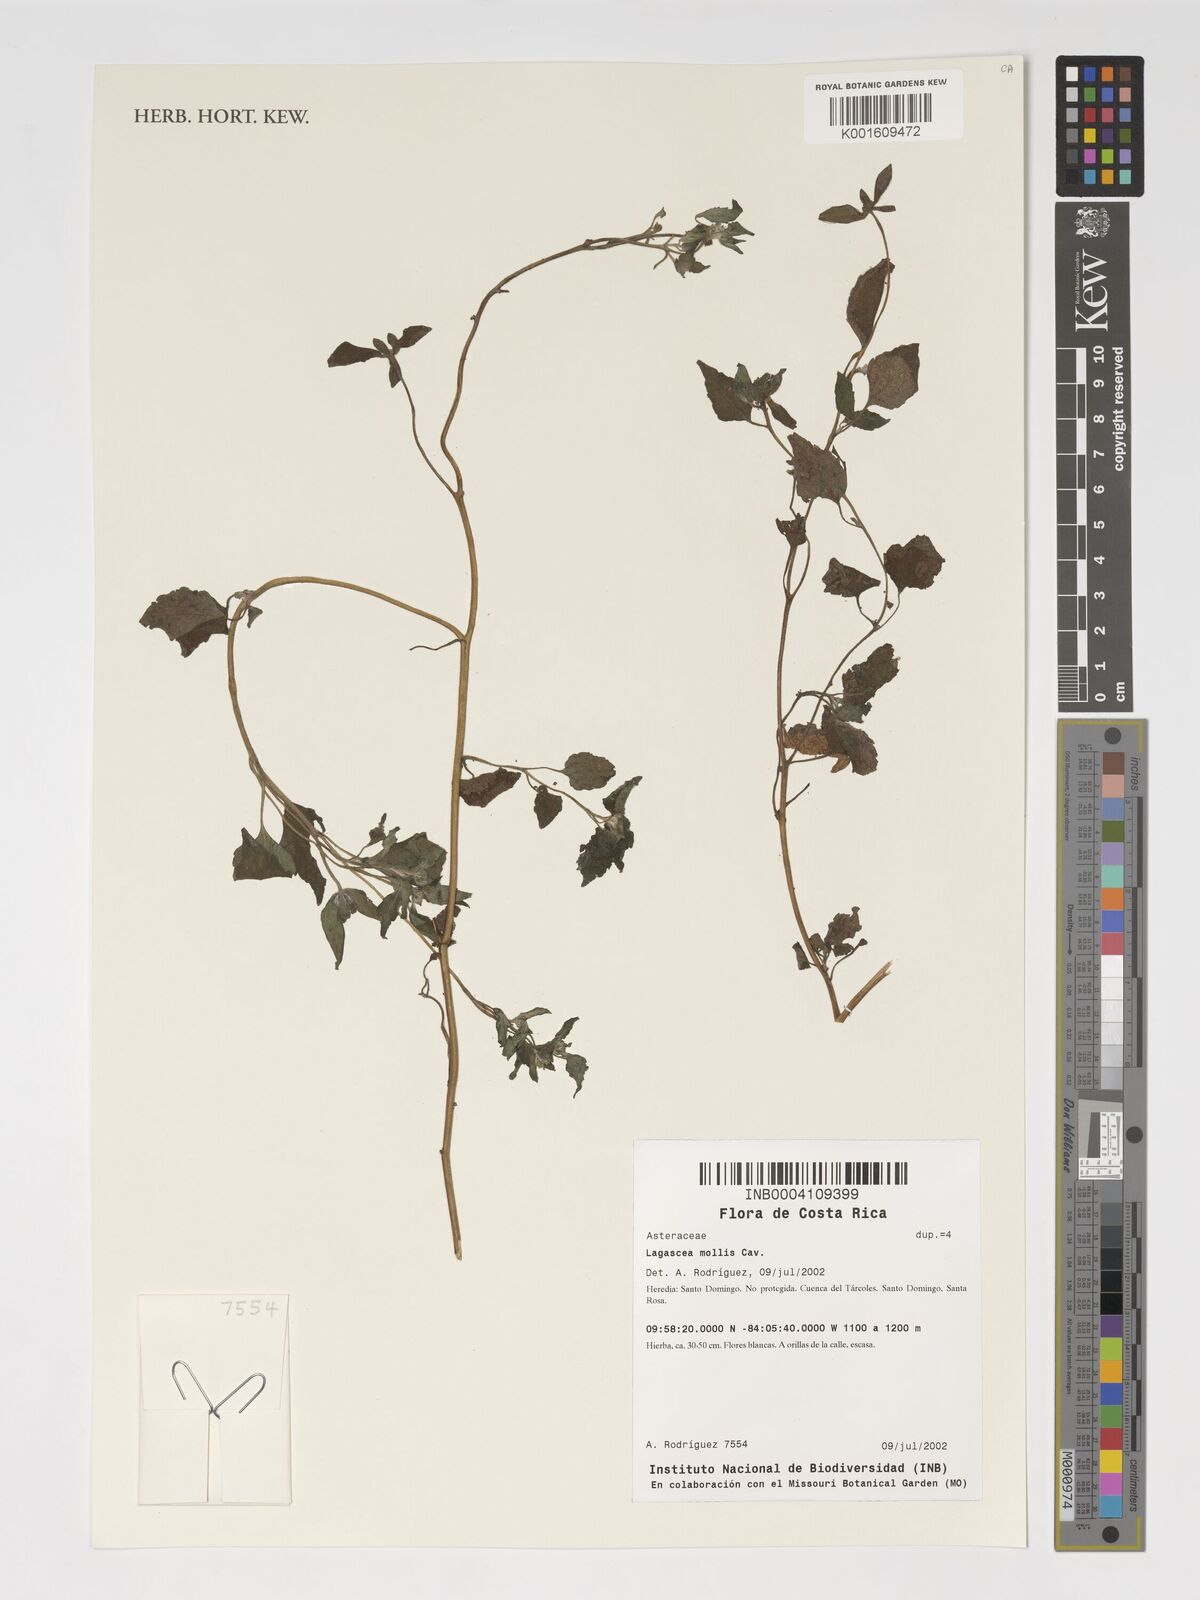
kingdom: Plantae
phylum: Tracheophyta
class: Magnoliopsida
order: Asterales
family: Asteraceae
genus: Lagascea
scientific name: Lagascea mollis
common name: Silkleaf
